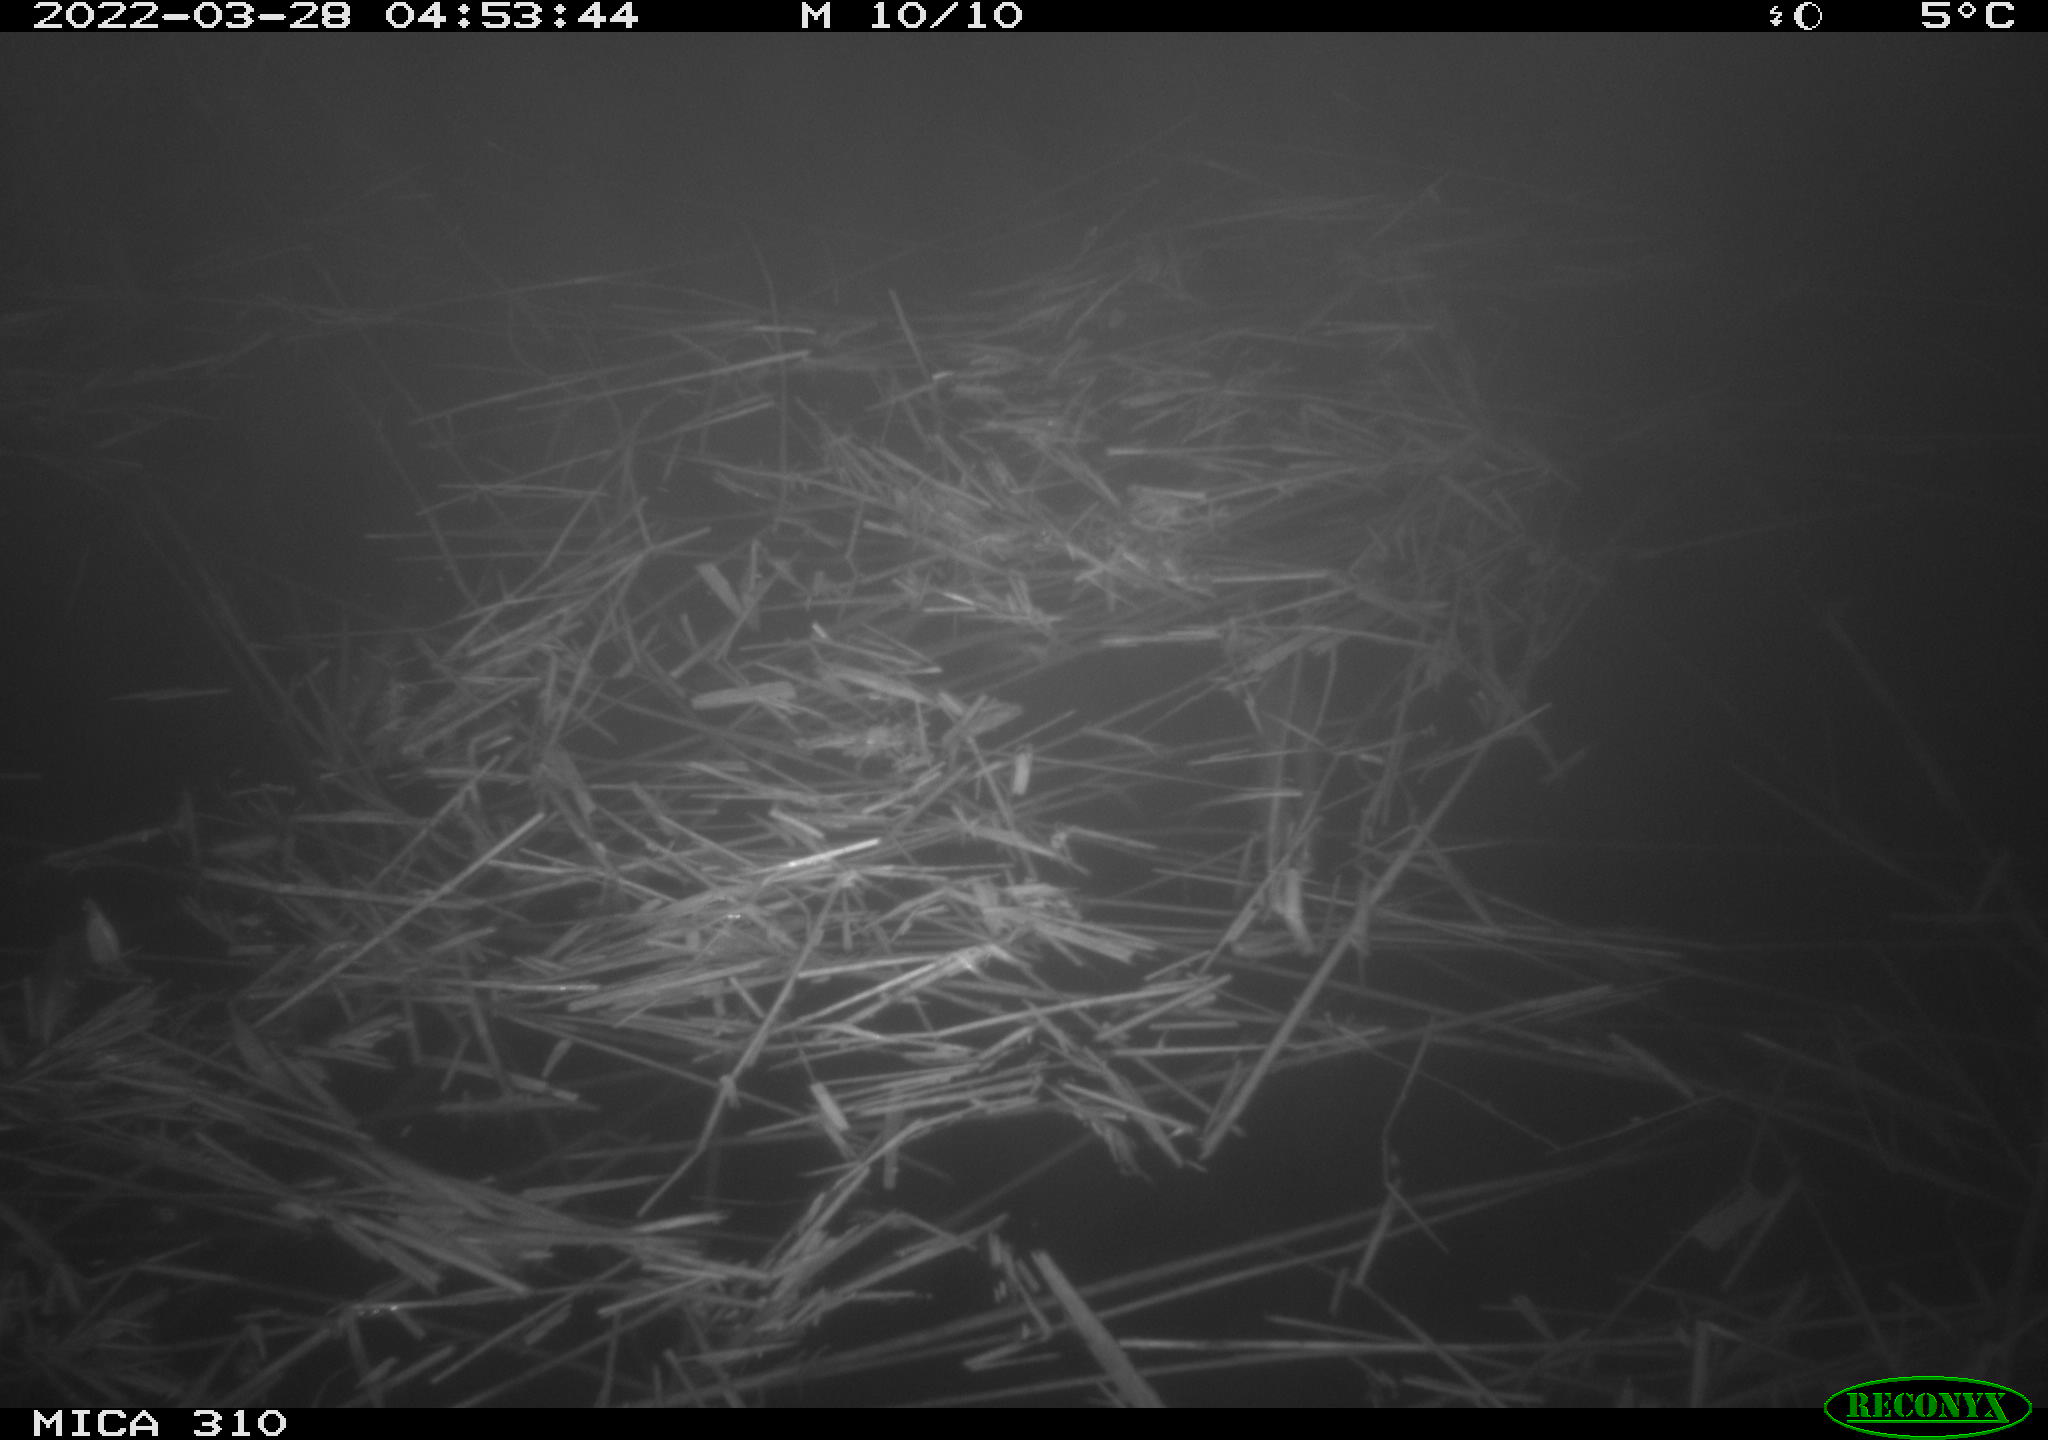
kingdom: Animalia
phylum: Chordata
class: Aves
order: Anseriformes
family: Anatidae
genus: Anas
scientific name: Anas platyrhynchos
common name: Mallard
